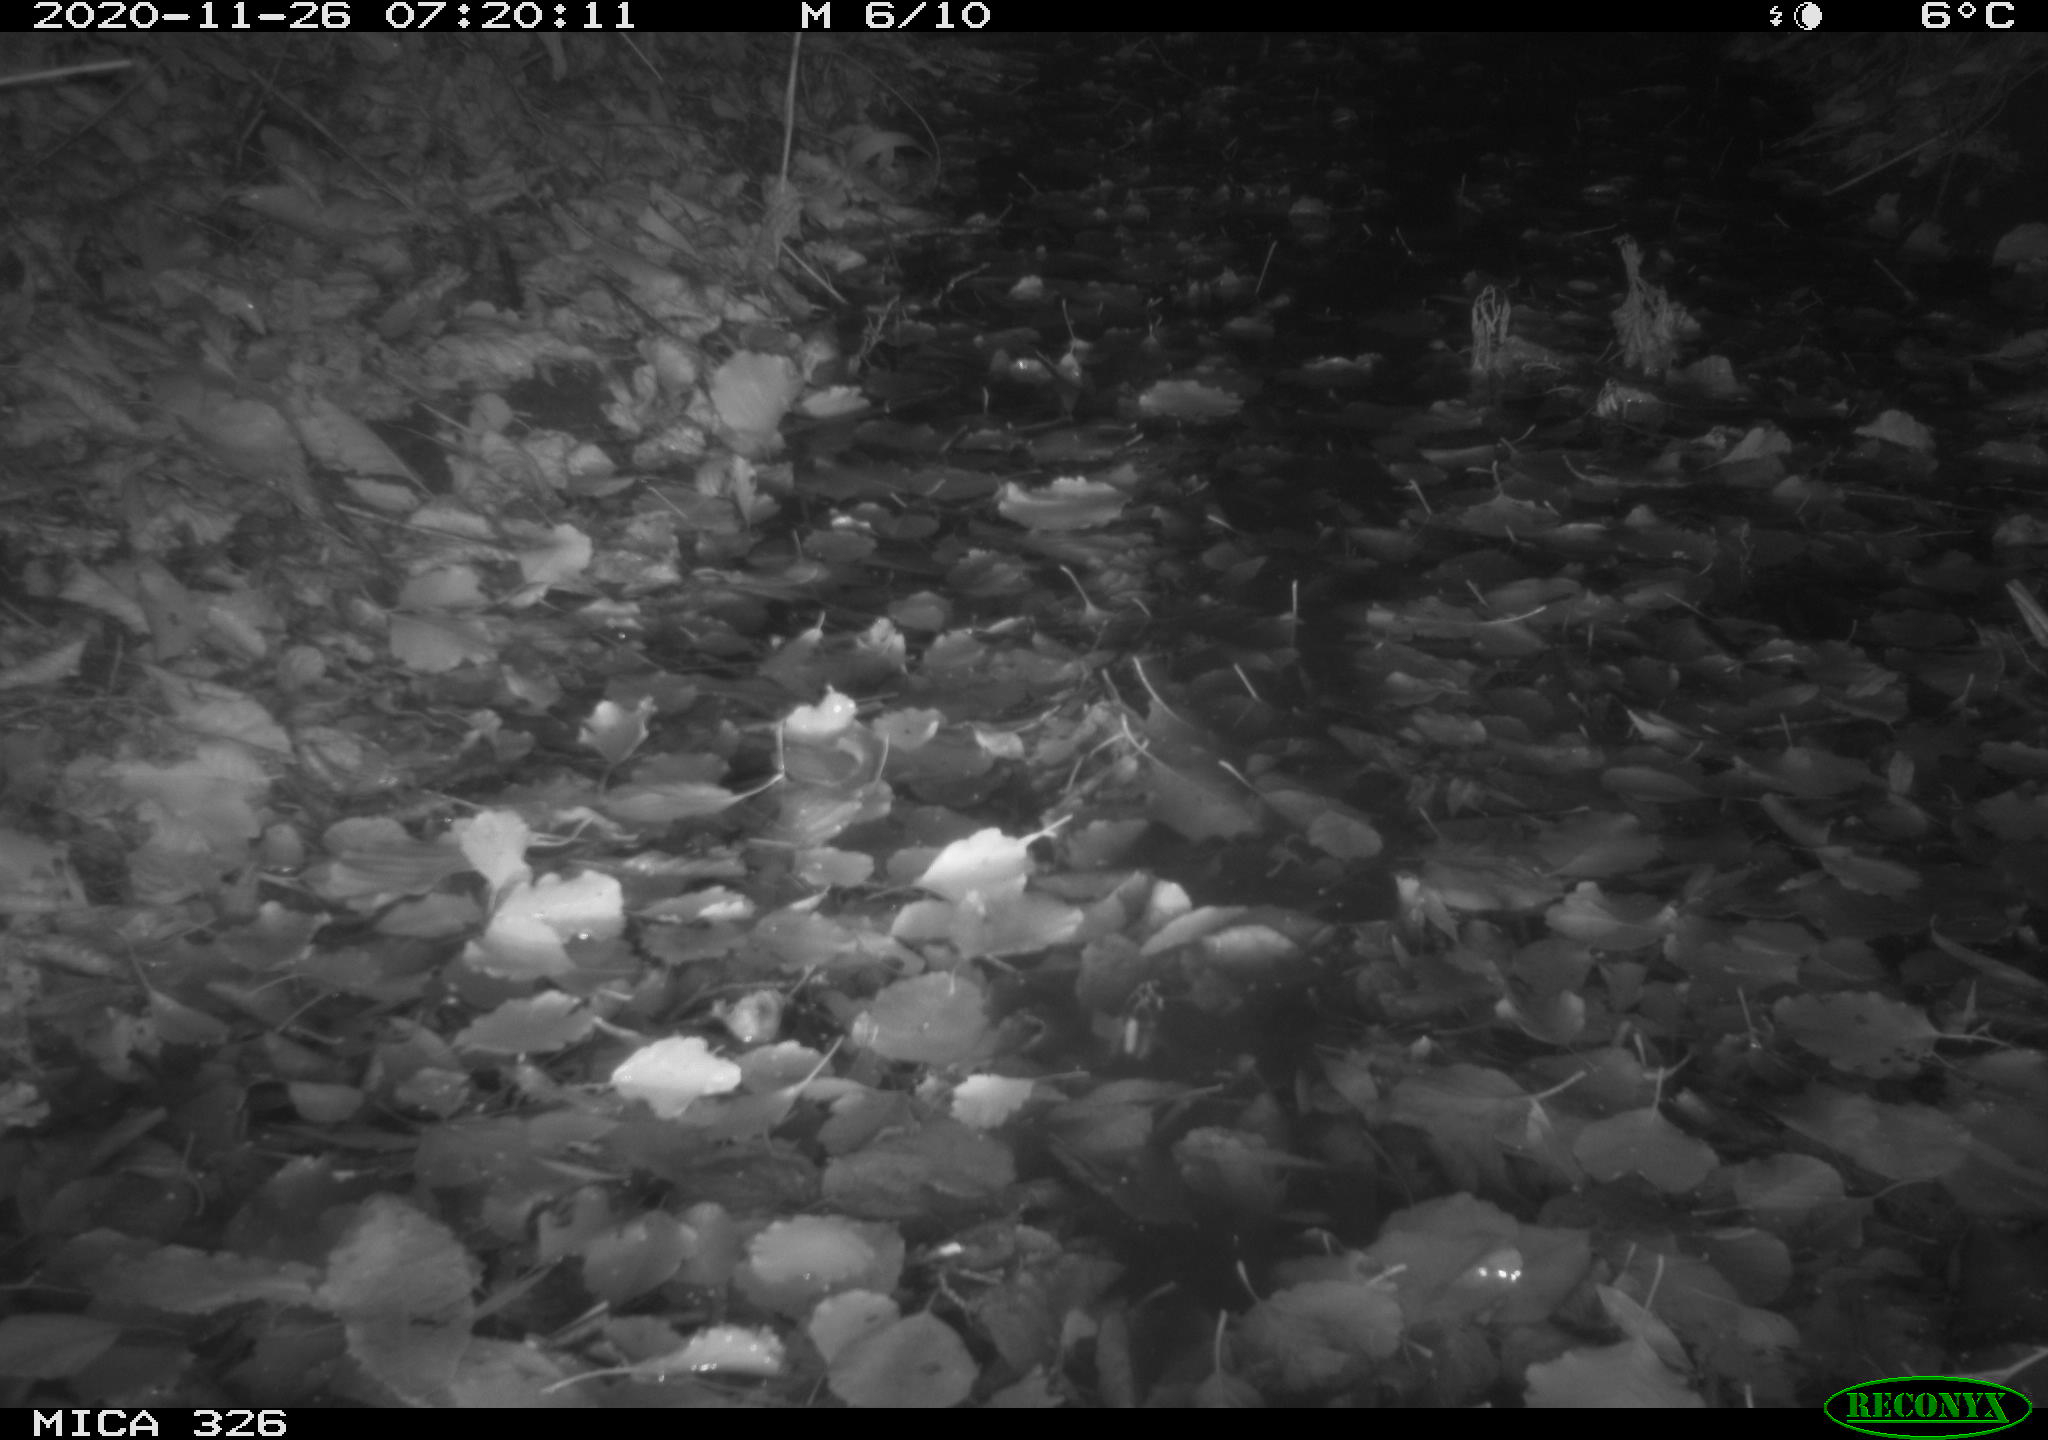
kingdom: Animalia
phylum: Chordata
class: Mammalia
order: Carnivora
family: Mustelidae
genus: Lutra
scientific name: Lutra lutra
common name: European otter
